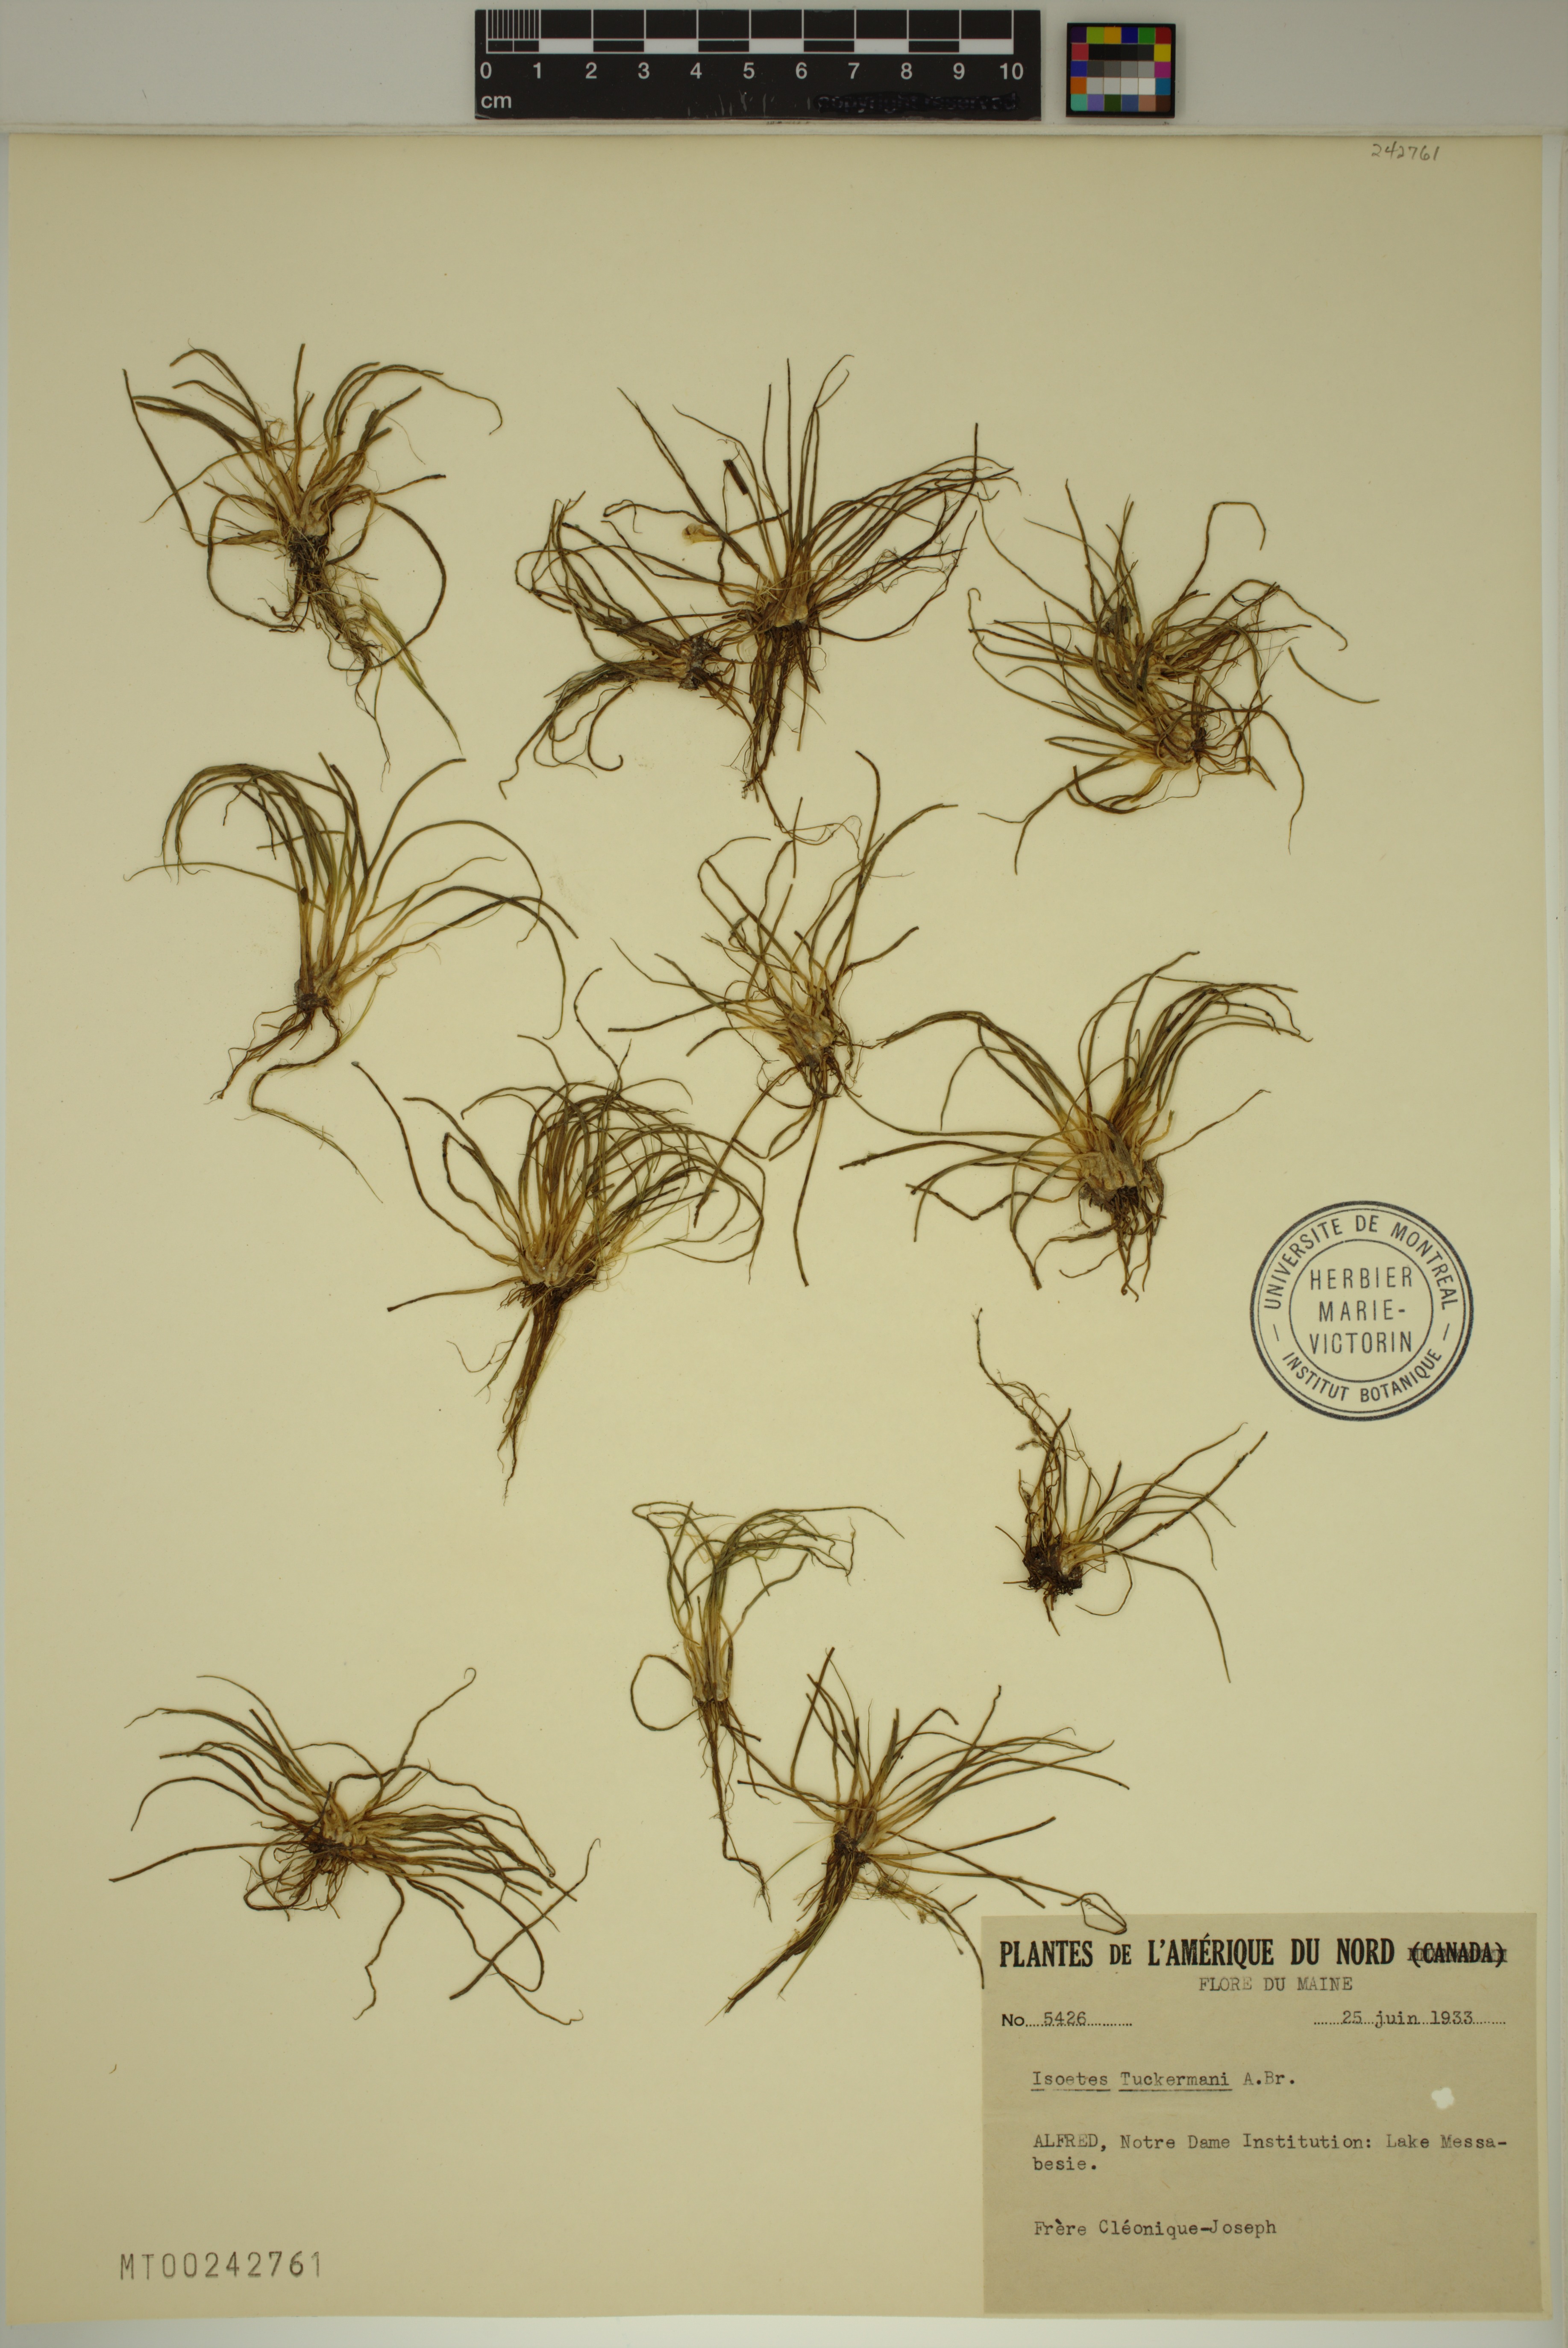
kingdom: Plantae
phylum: Tracheophyta
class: Lycopodiopsida
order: Isoetales
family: Isoetaceae
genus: Isoetes
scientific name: Isoetes tuckermanii
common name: Tuckerman's quillwort
